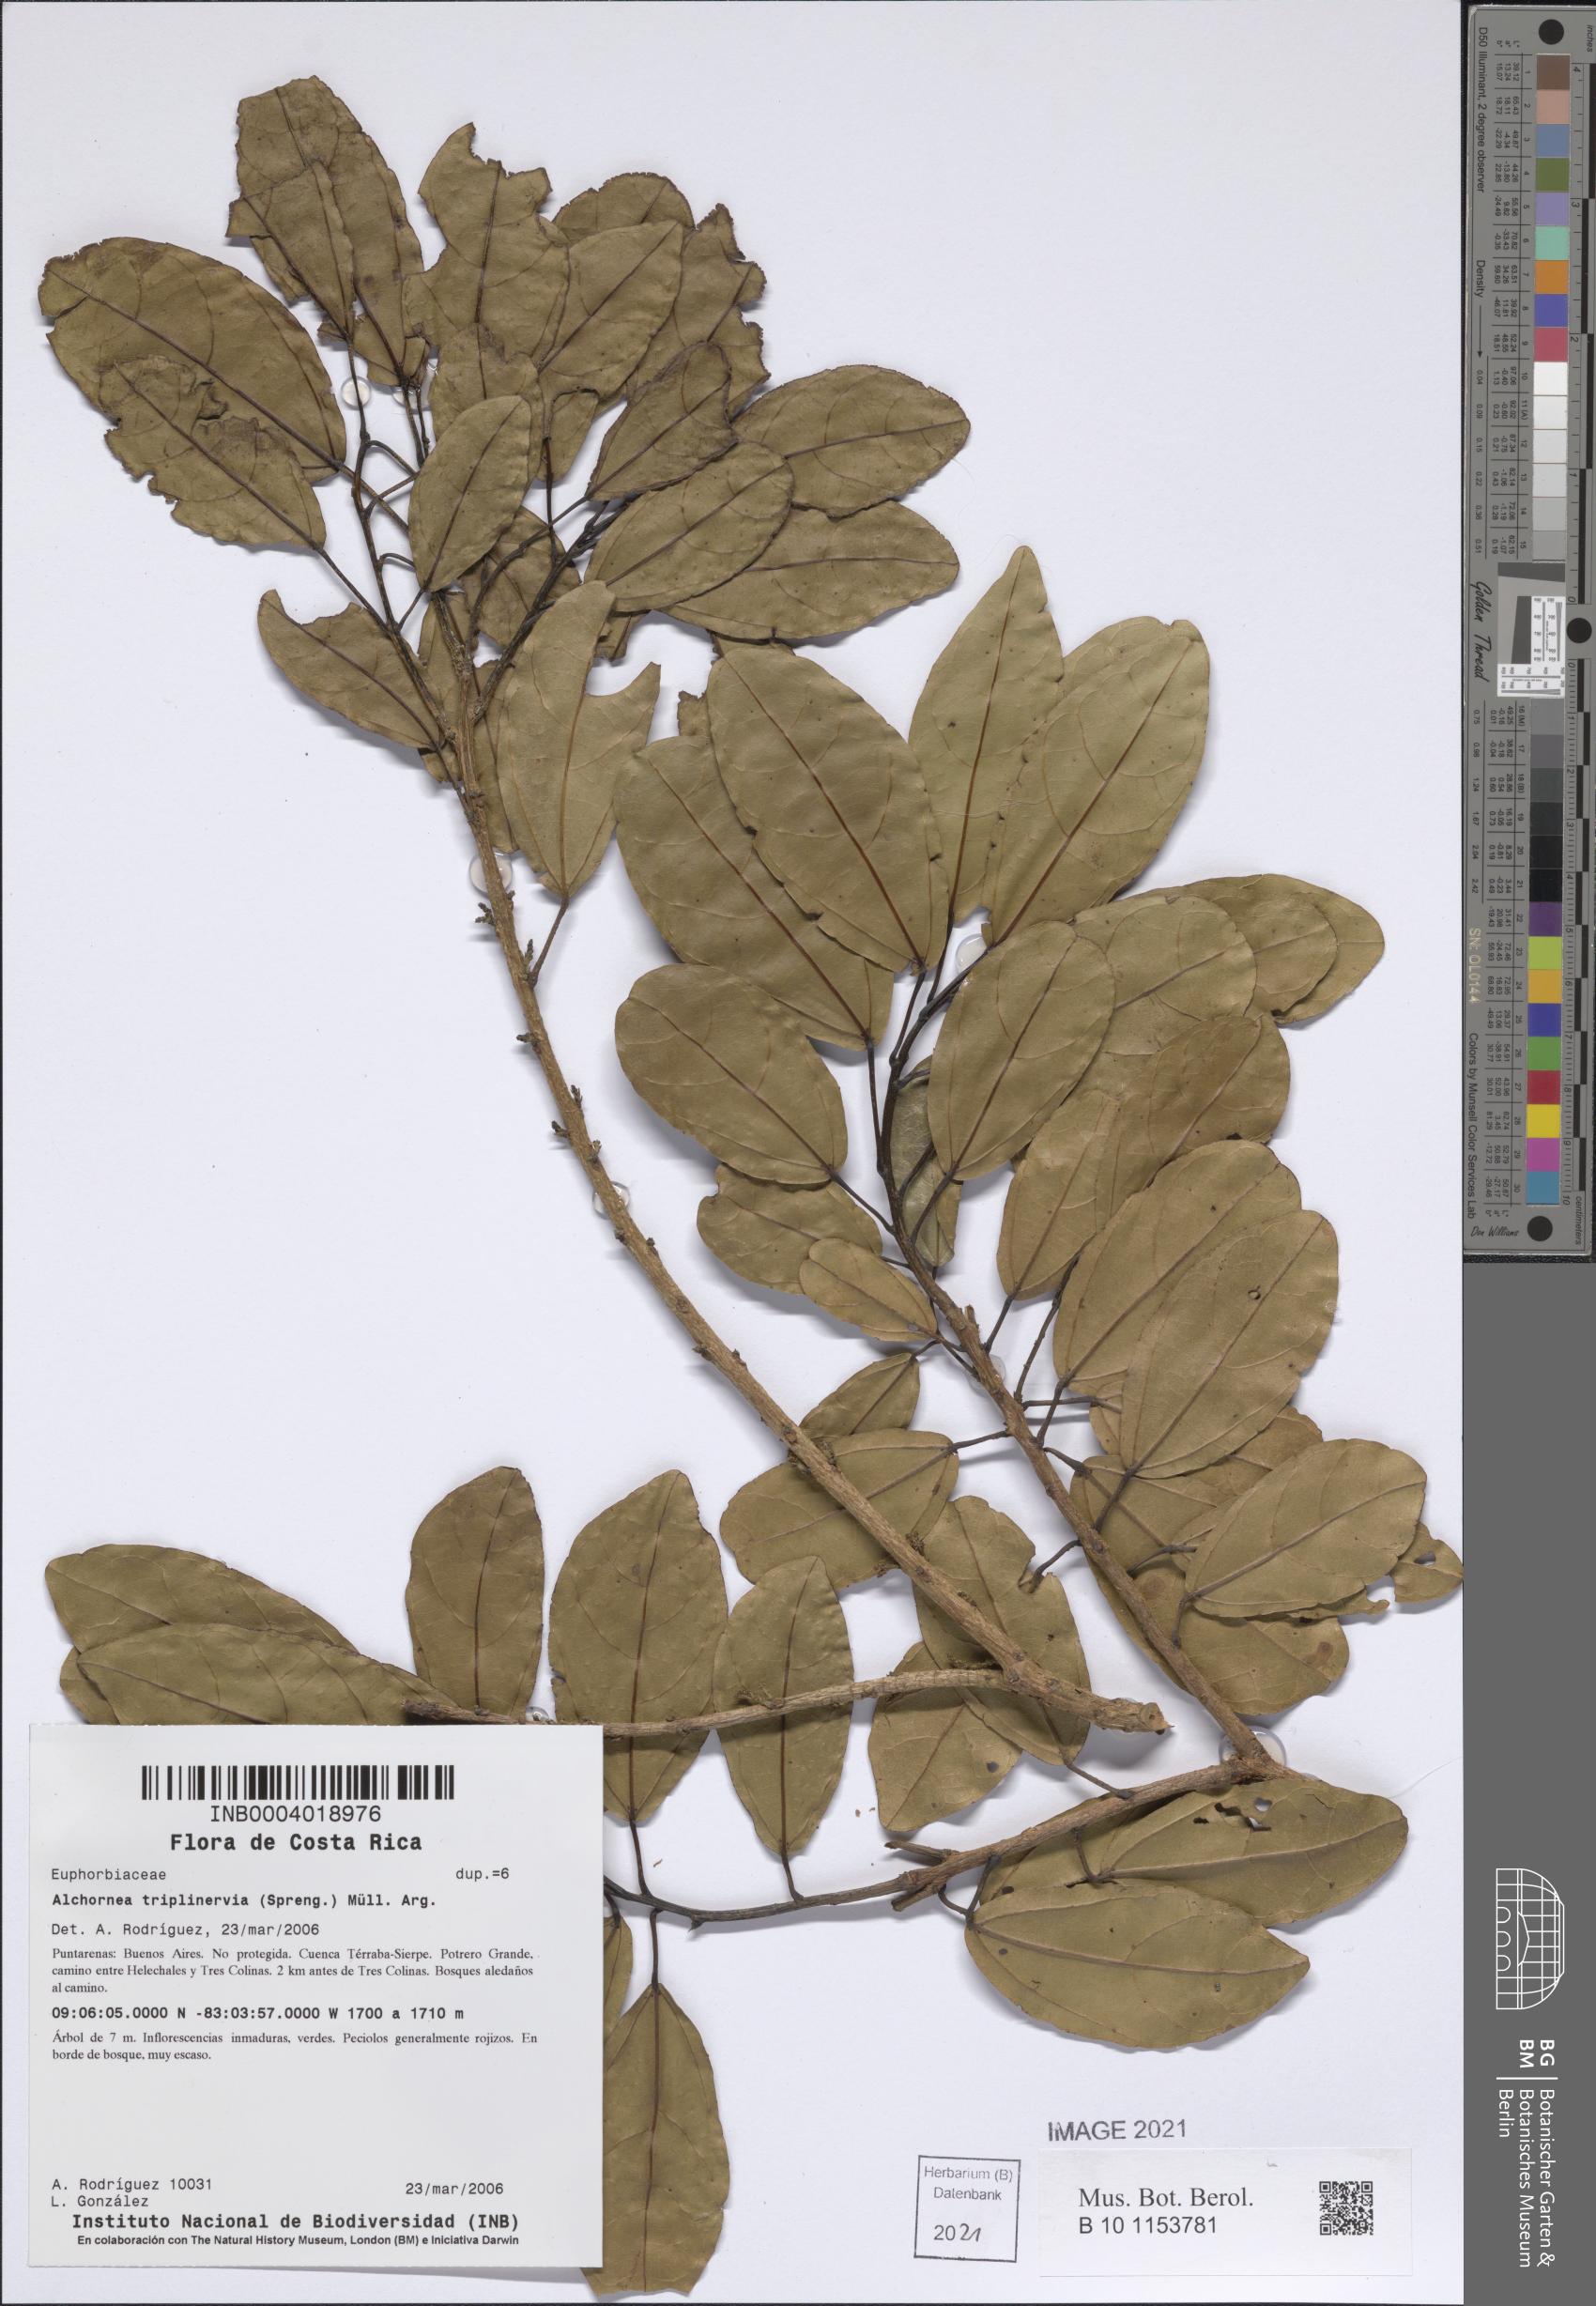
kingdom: Plantae
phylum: Tracheophyta
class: Magnoliopsida
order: Malpighiales
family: Euphorbiaceae
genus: Alchornea
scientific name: Alchornea guatemalensis
